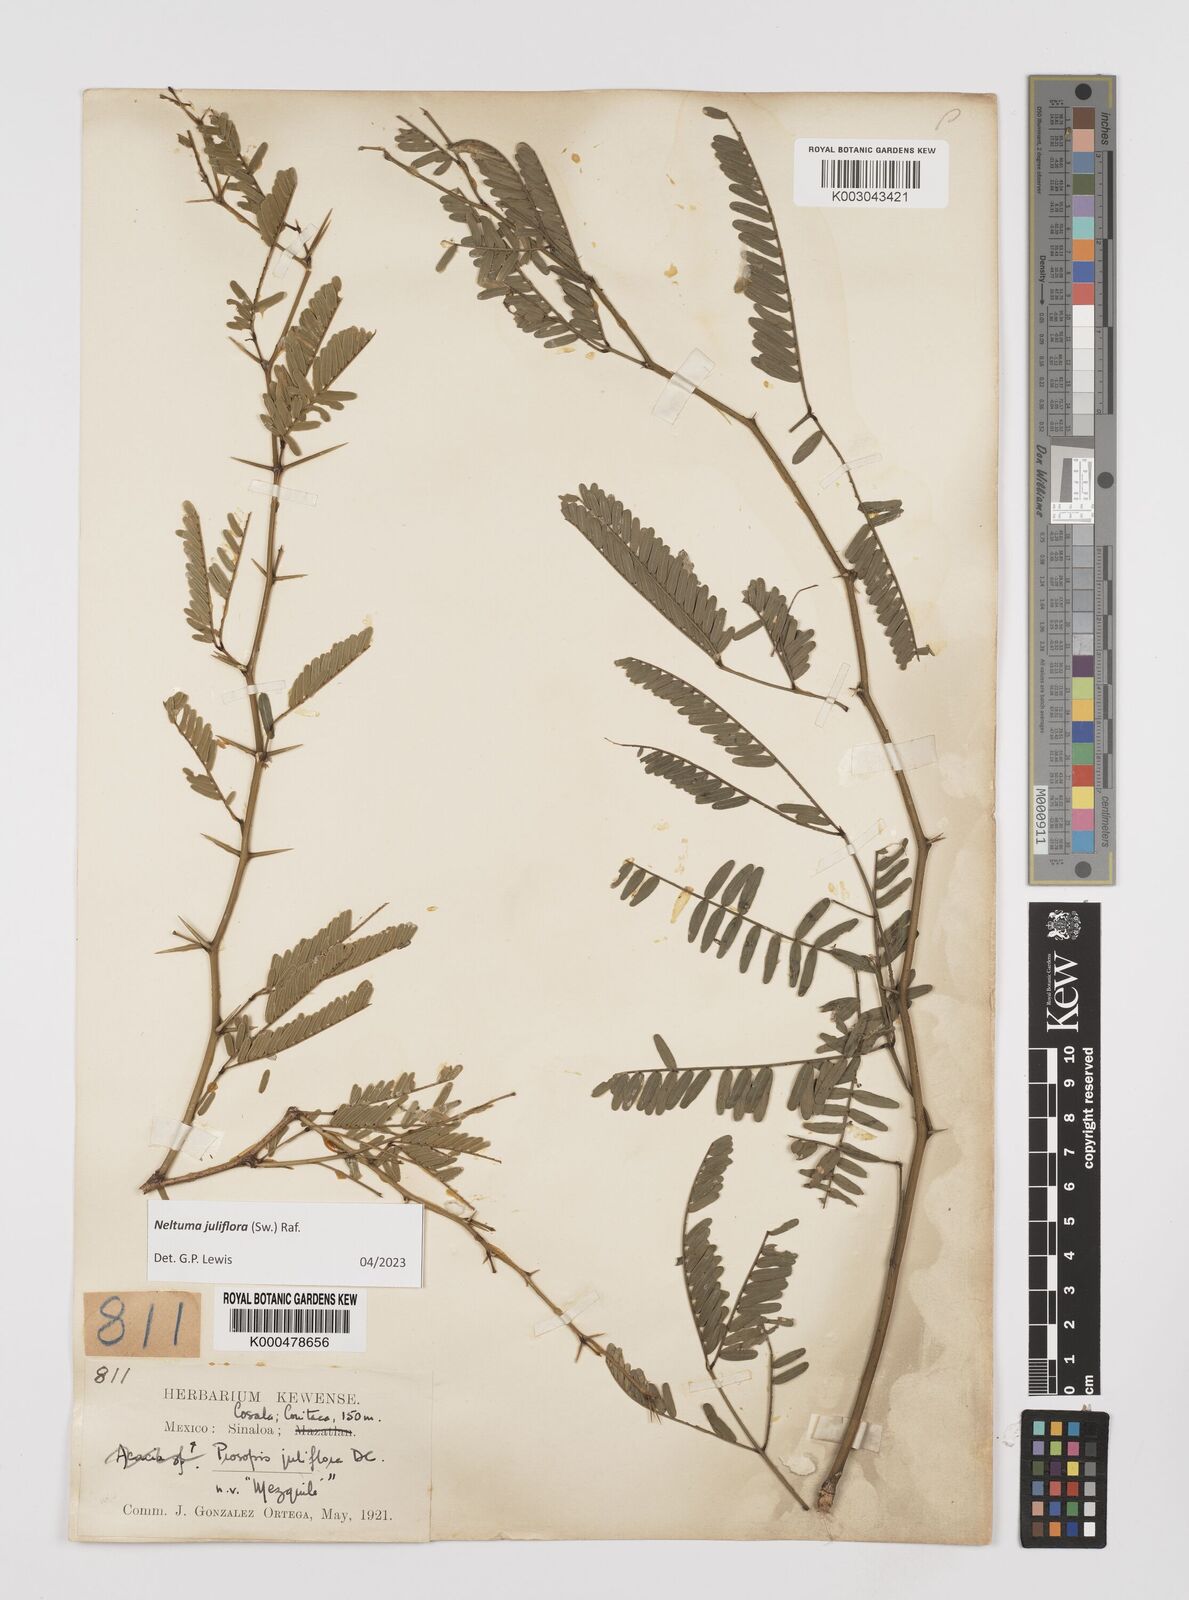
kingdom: Plantae
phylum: Tracheophyta
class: Magnoliopsida
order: Fabales
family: Fabaceae
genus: Prosopis
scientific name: Prosopis juliflora
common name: Mesquite
